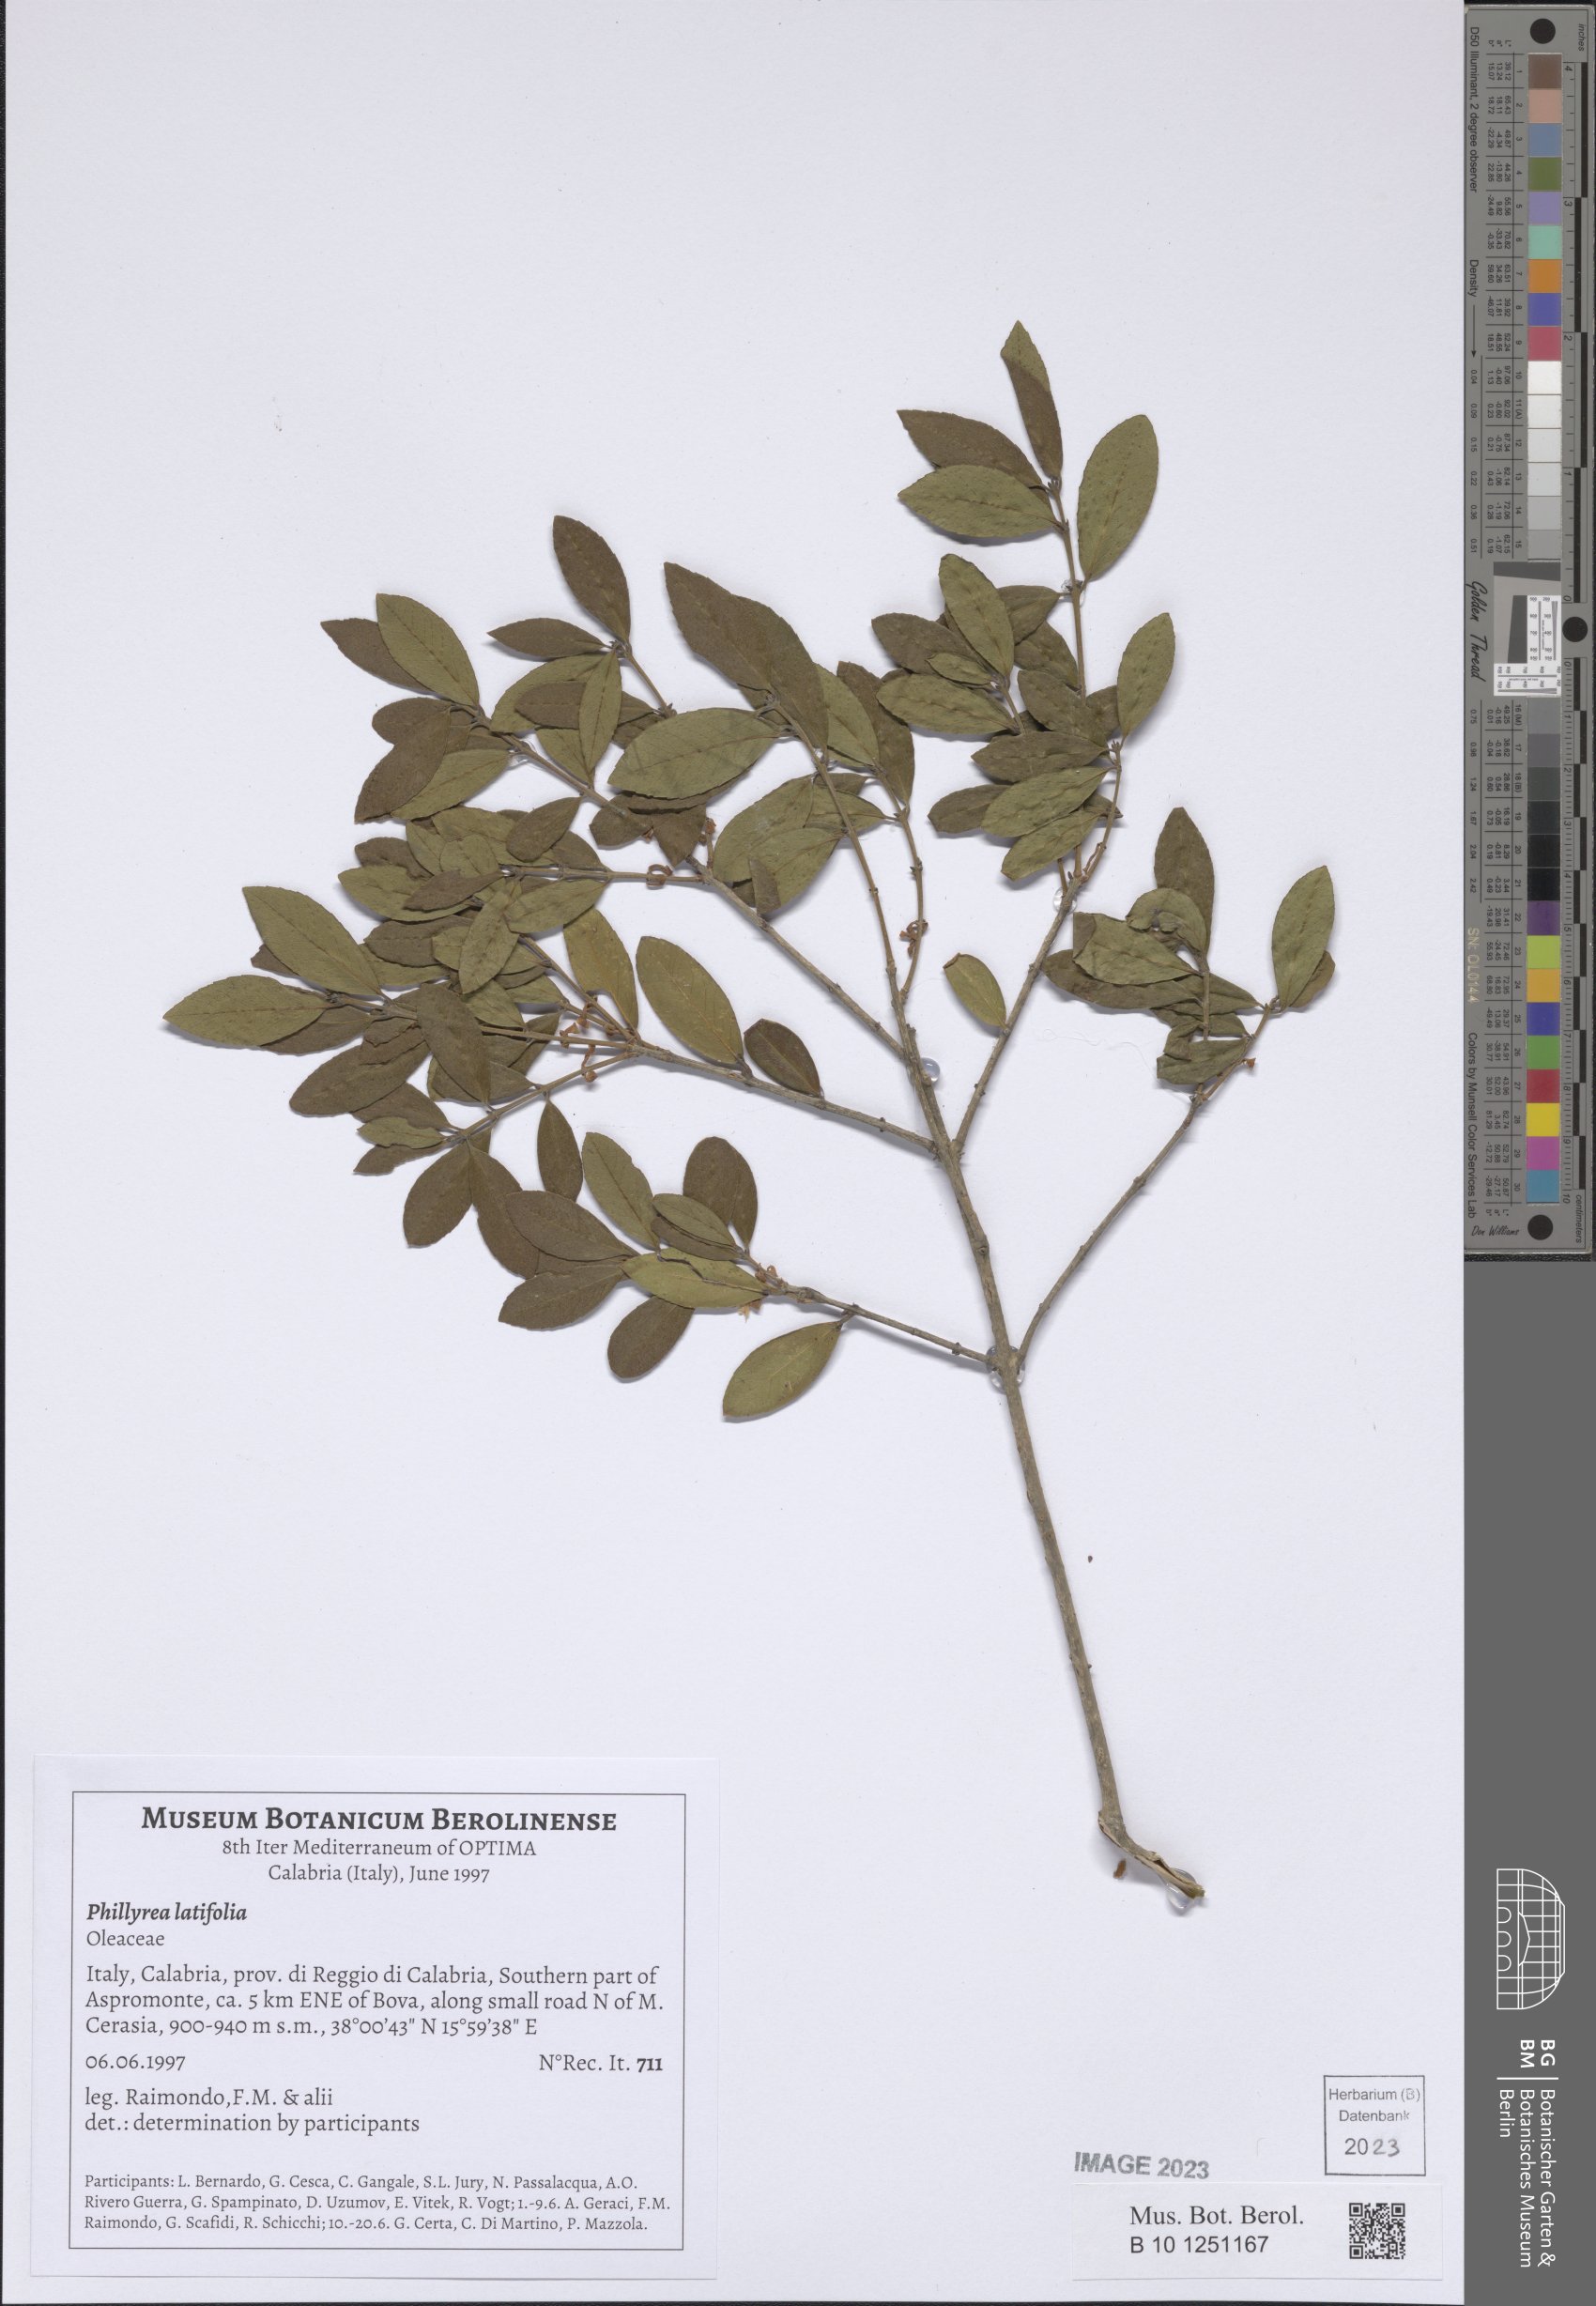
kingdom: Plantae
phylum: Tracheophyta
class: Magnoliopsida
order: Lamiales
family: Oleaceae
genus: Phillyrea
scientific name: Phillyrea latifolia
